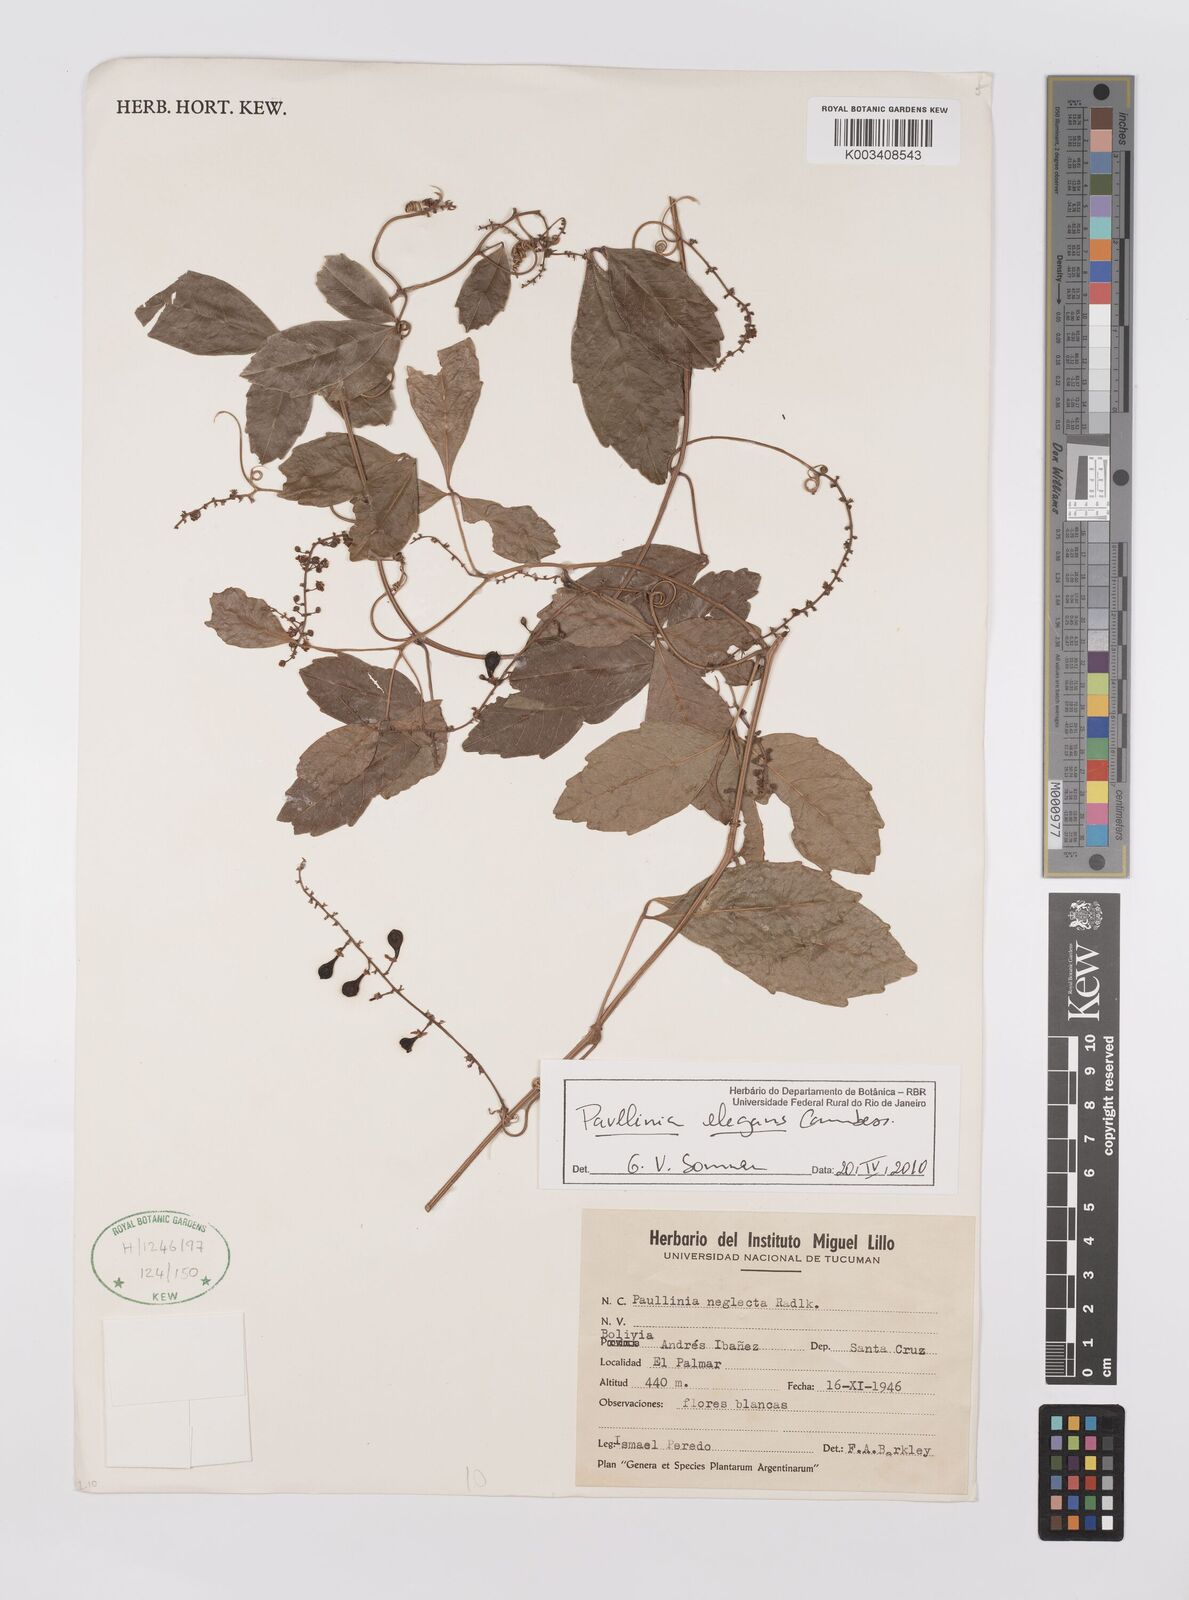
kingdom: Plantae
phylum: Tracheophyta
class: Magnoliopsida
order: Sapindales
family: Sapindaceae
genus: Paullinia
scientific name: Paullinia elegans
